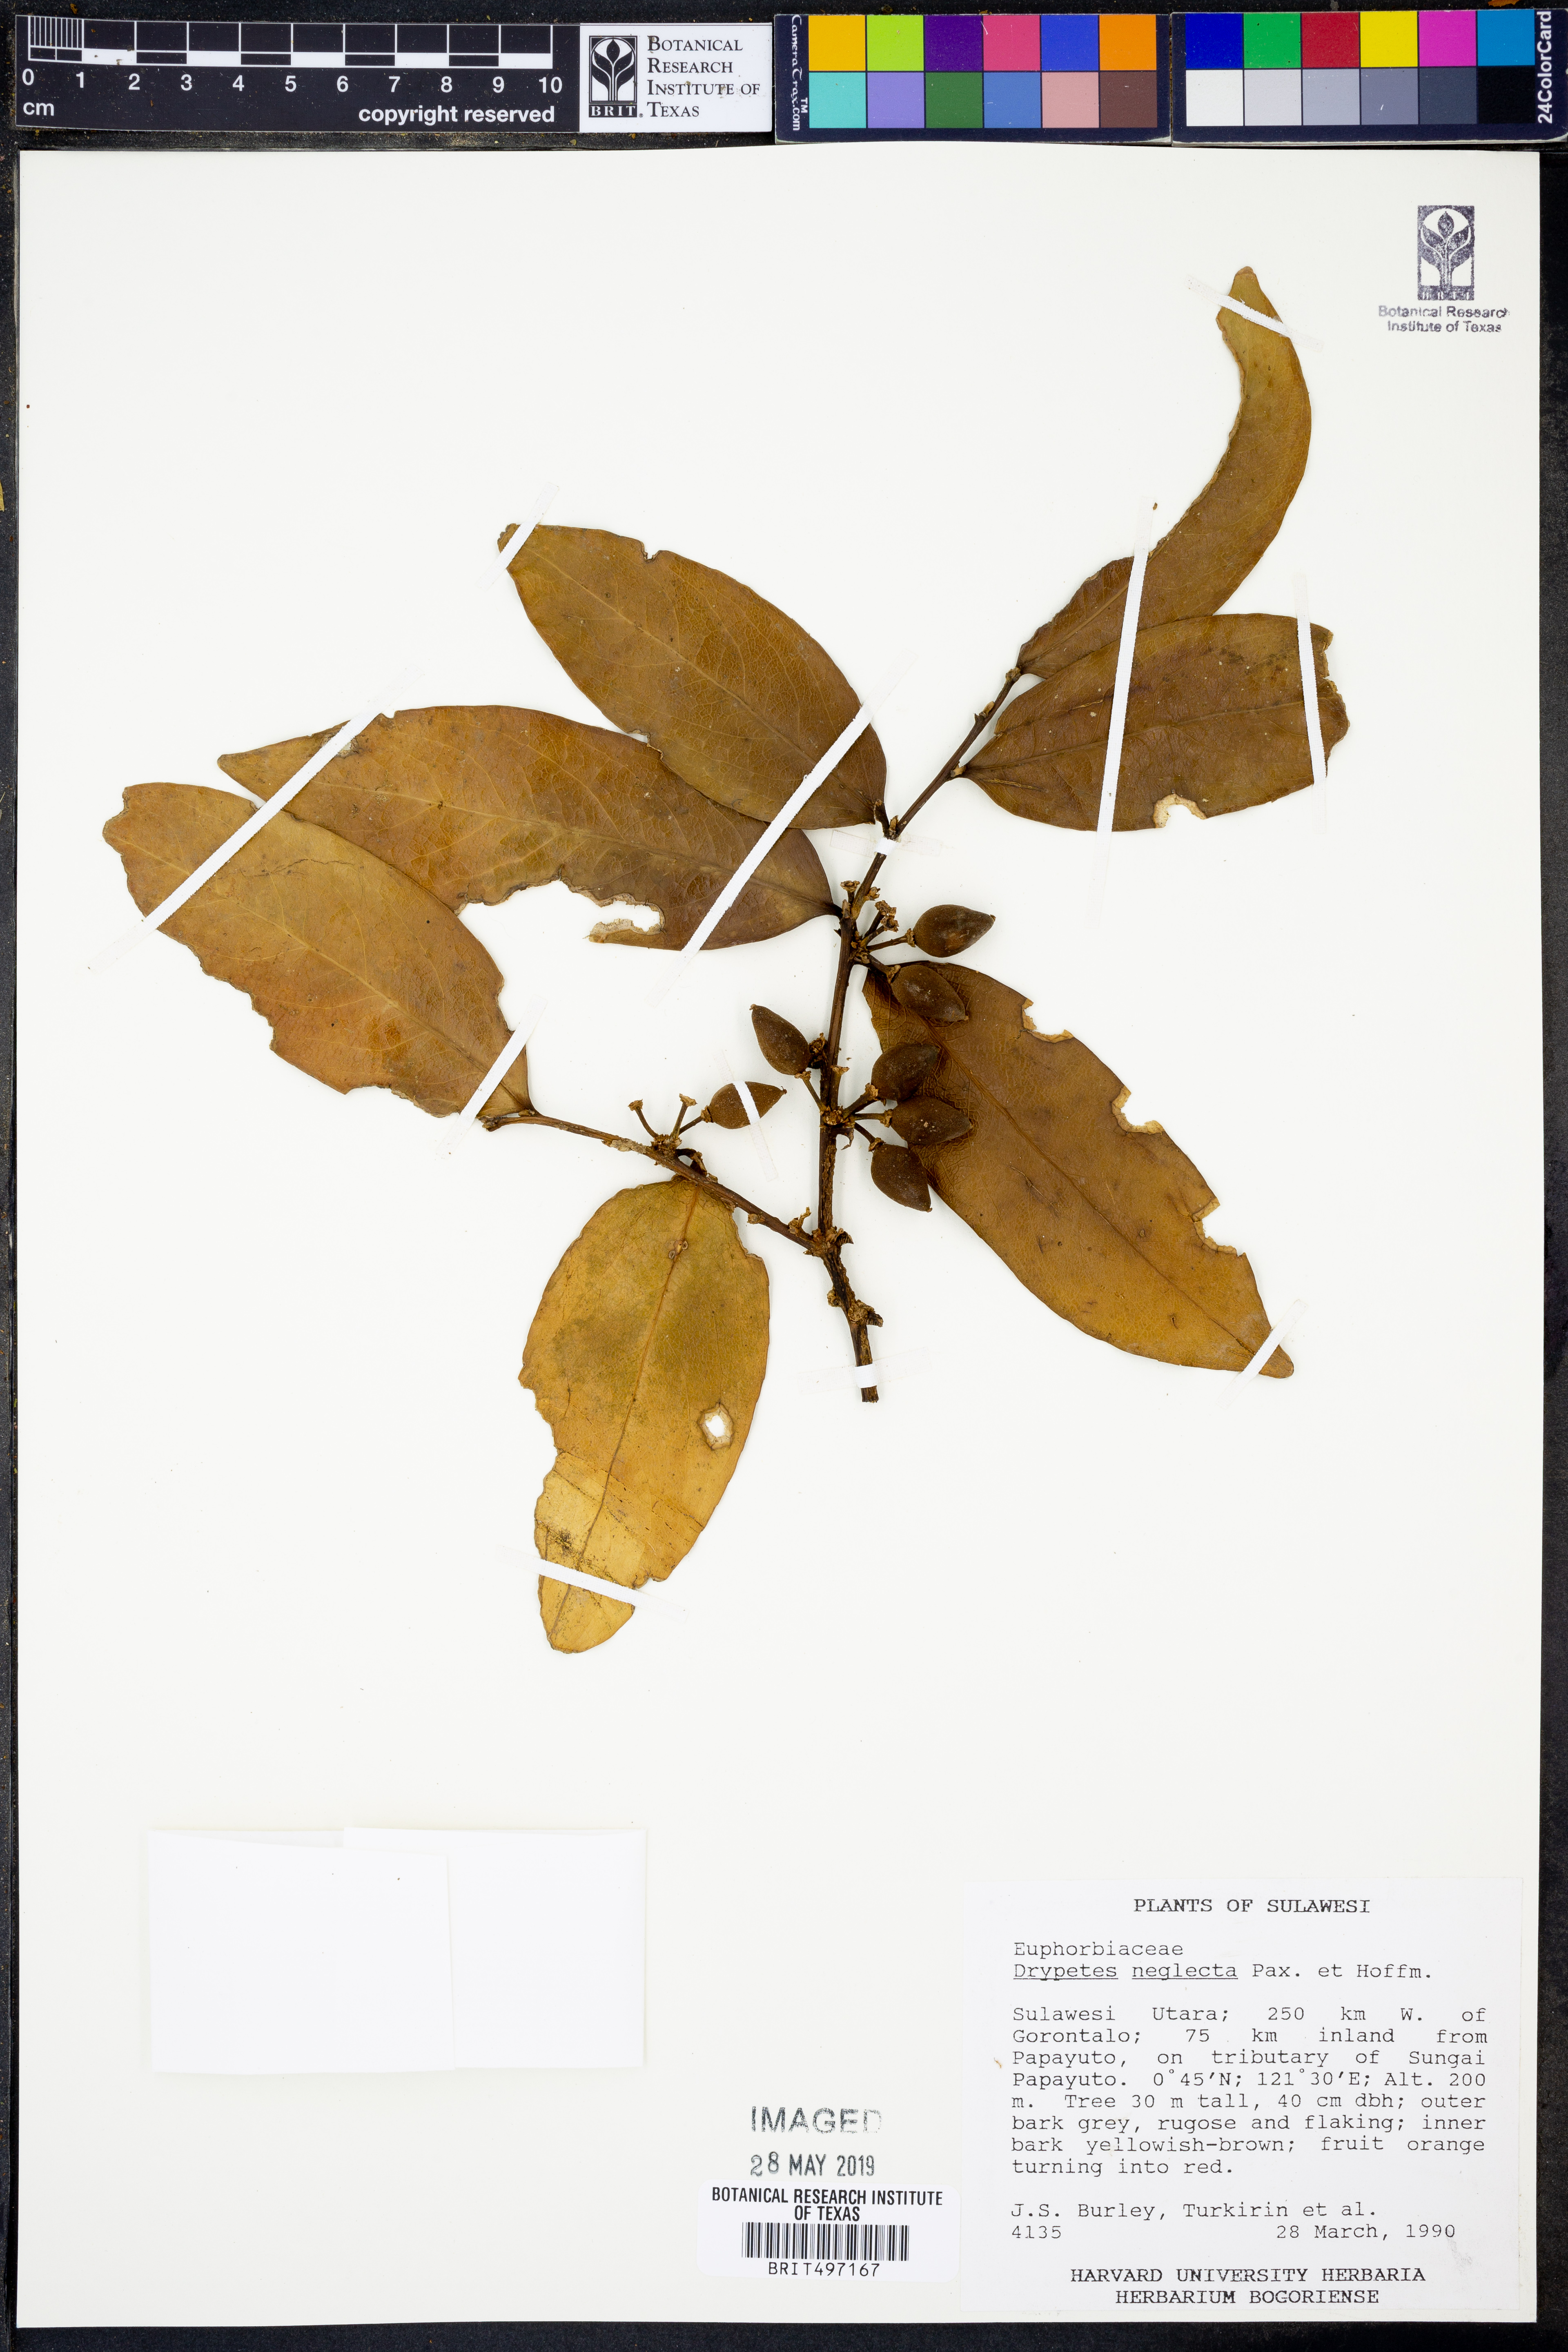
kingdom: Plantae
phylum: Tracheophyta
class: Magnoliopsida
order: Malpighiales
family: Putranjivaceae
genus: Drypetes
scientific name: Drypetes neglecta
